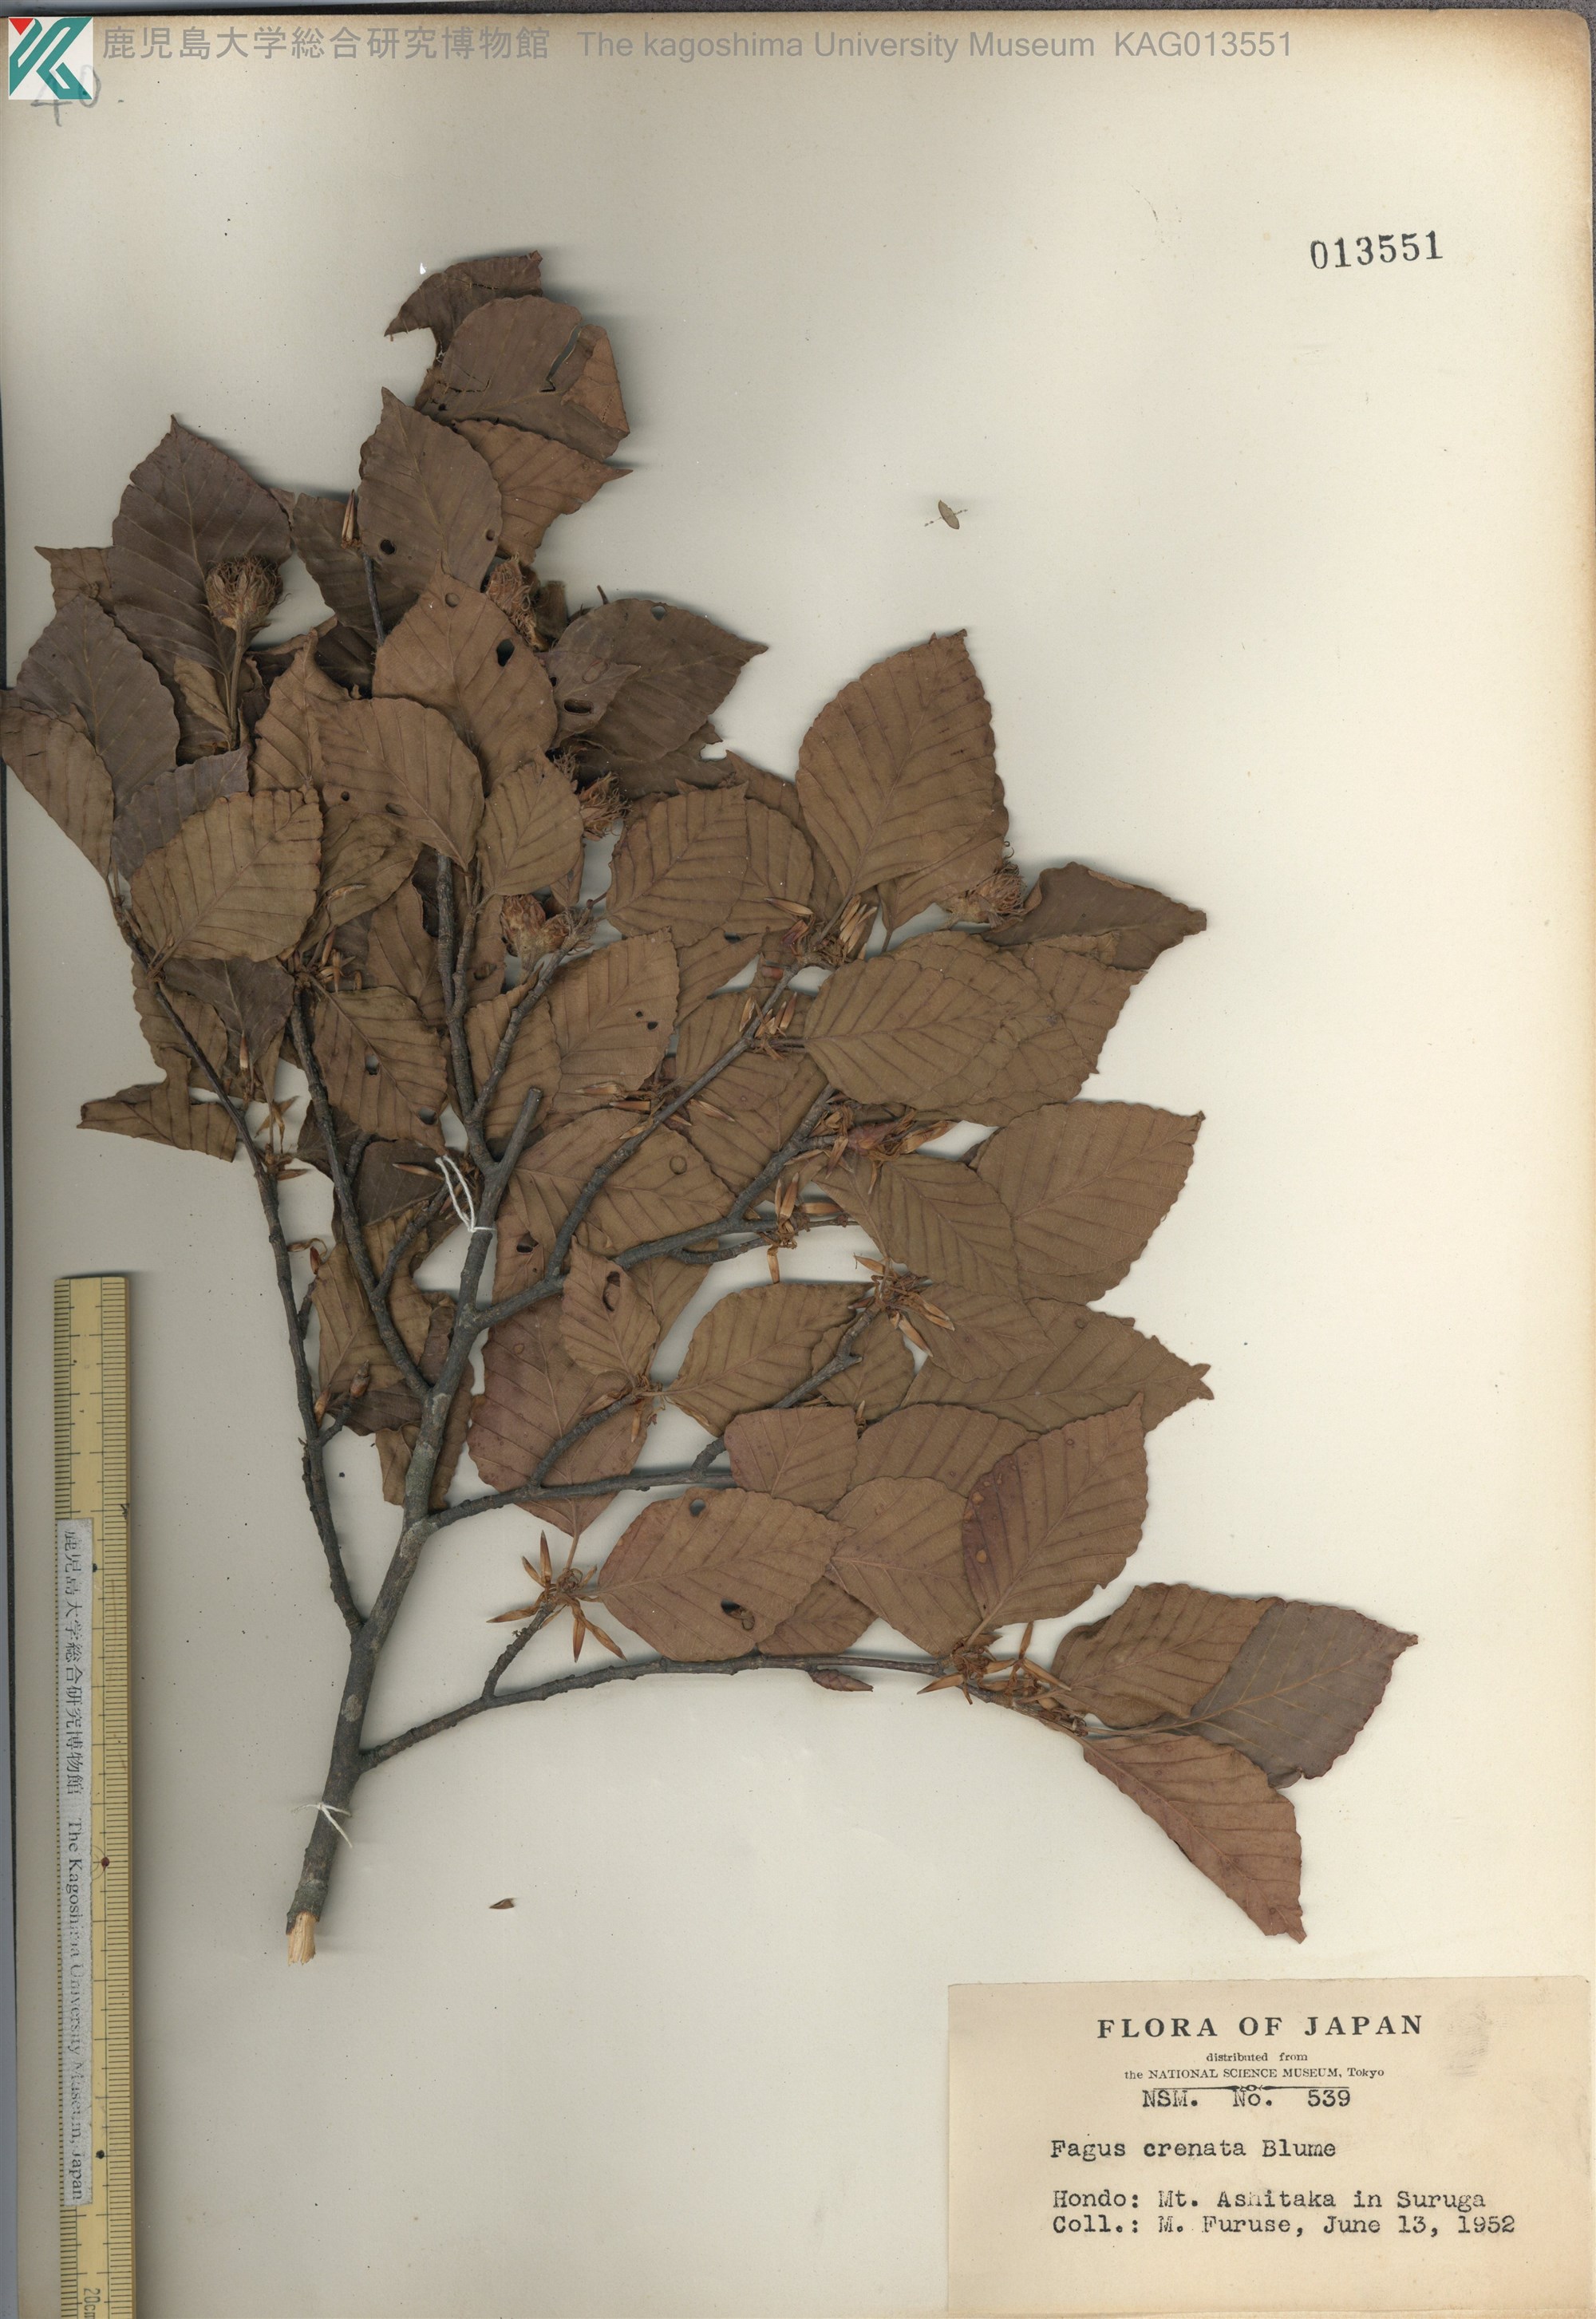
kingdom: Plantae
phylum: Tracheophyta
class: Magnoliopsida
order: Fagales
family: Fagaceae
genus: Fagus
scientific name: Fagus crenata
